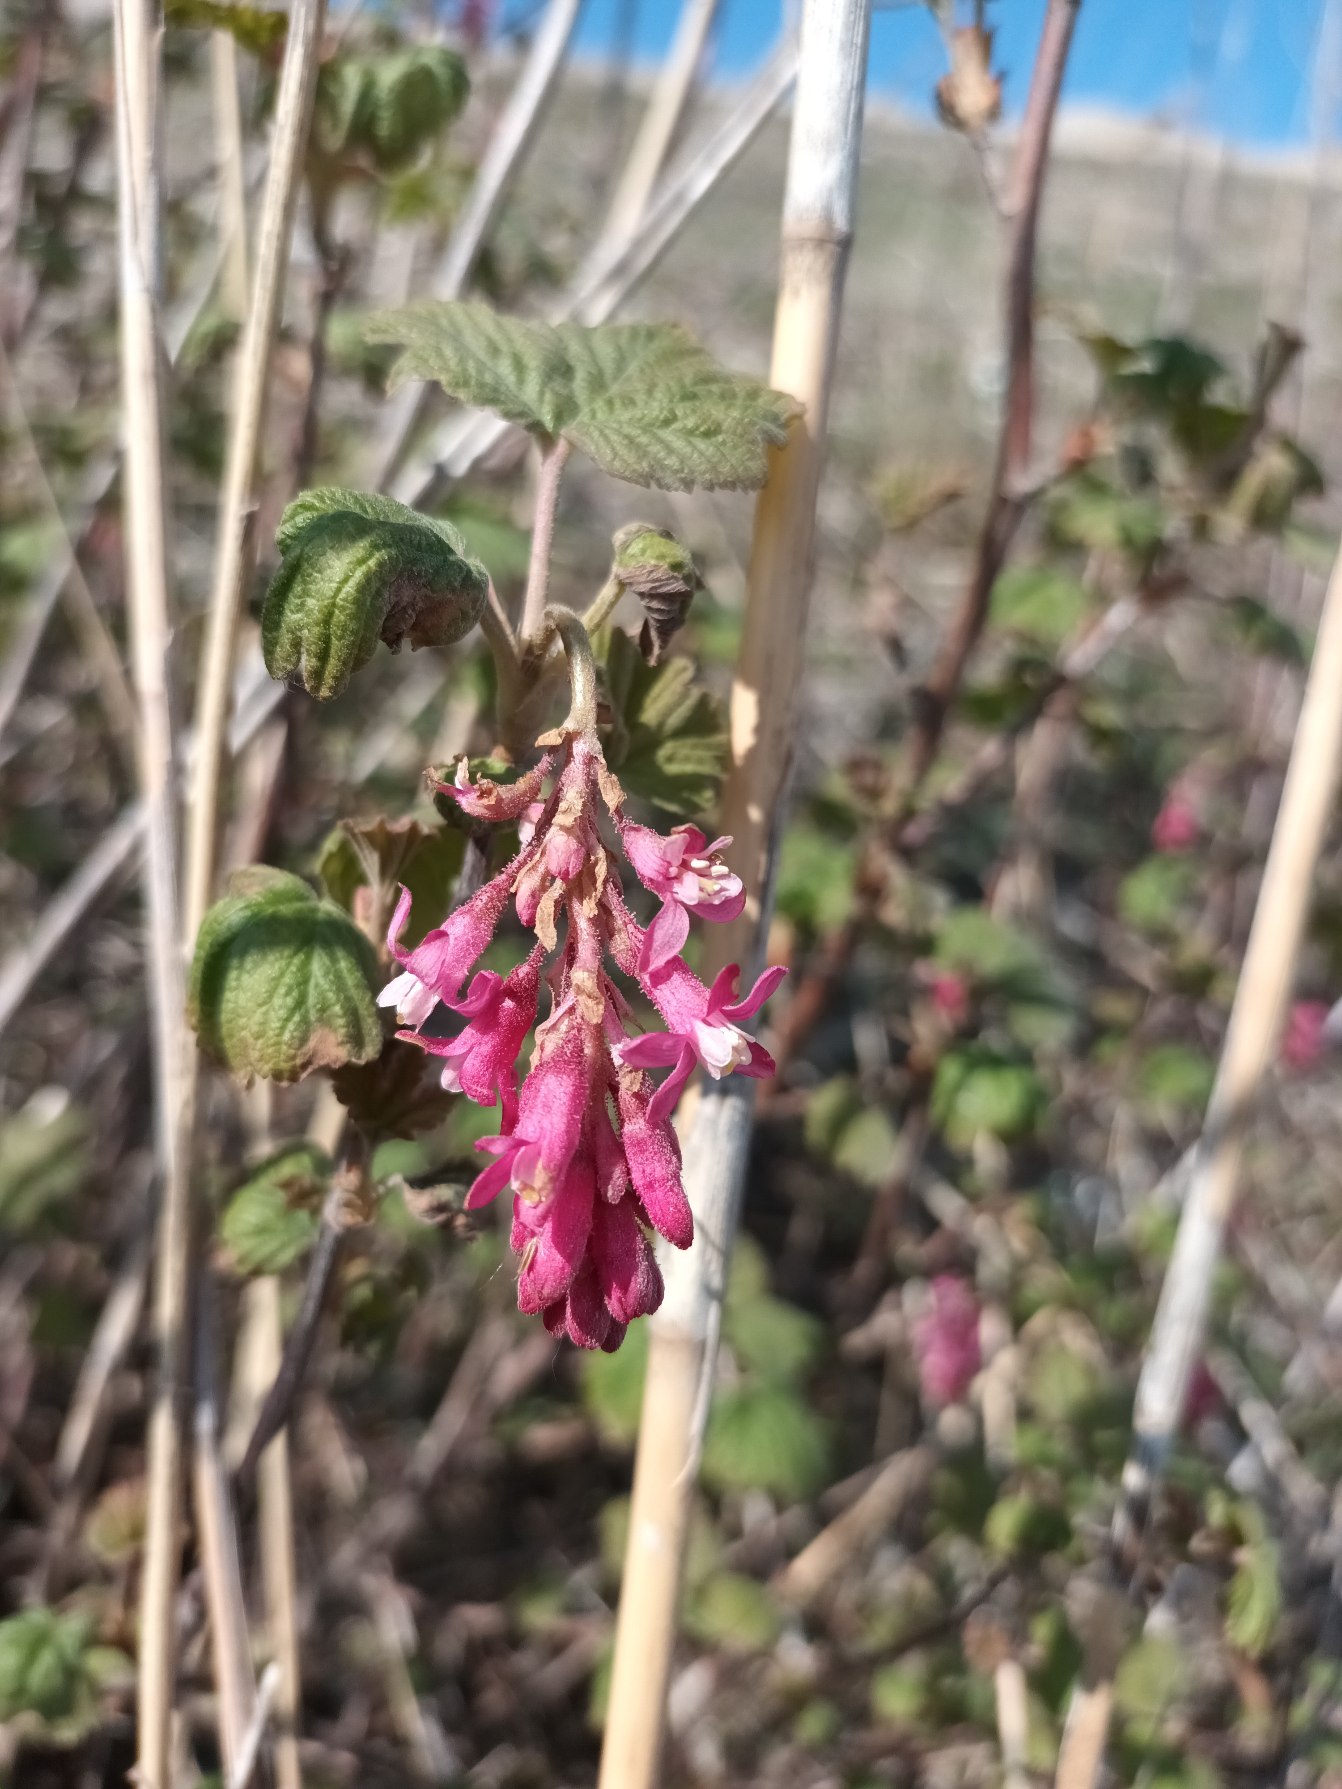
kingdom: Plantae
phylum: Tracheophyta
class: Magnoliopsida
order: Saxifragales
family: Grossulariaceae
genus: Ribes
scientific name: Ribes sanguineum
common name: Blod-ribs
